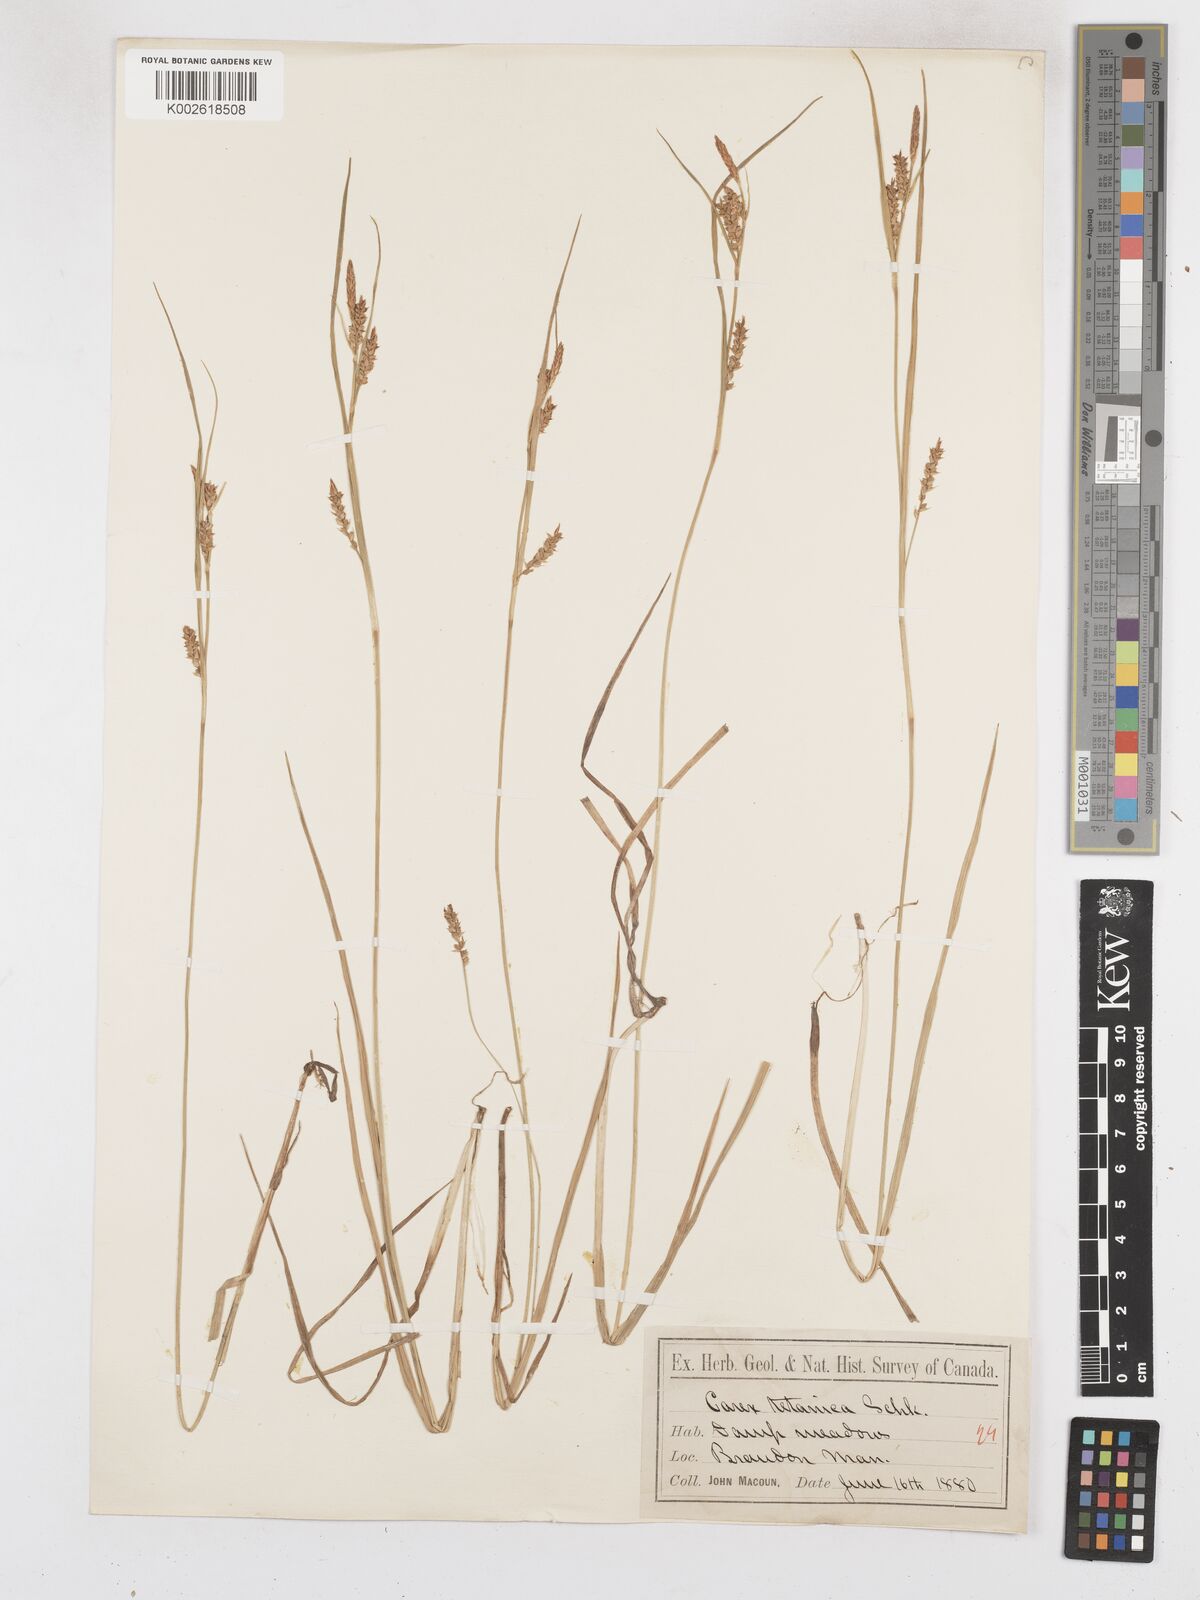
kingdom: Plantae
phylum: Tracheophyta
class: Liliopsida
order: Poales
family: Cyperaceae
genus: Carex
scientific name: Carex tetanica
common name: Rigid sedge
